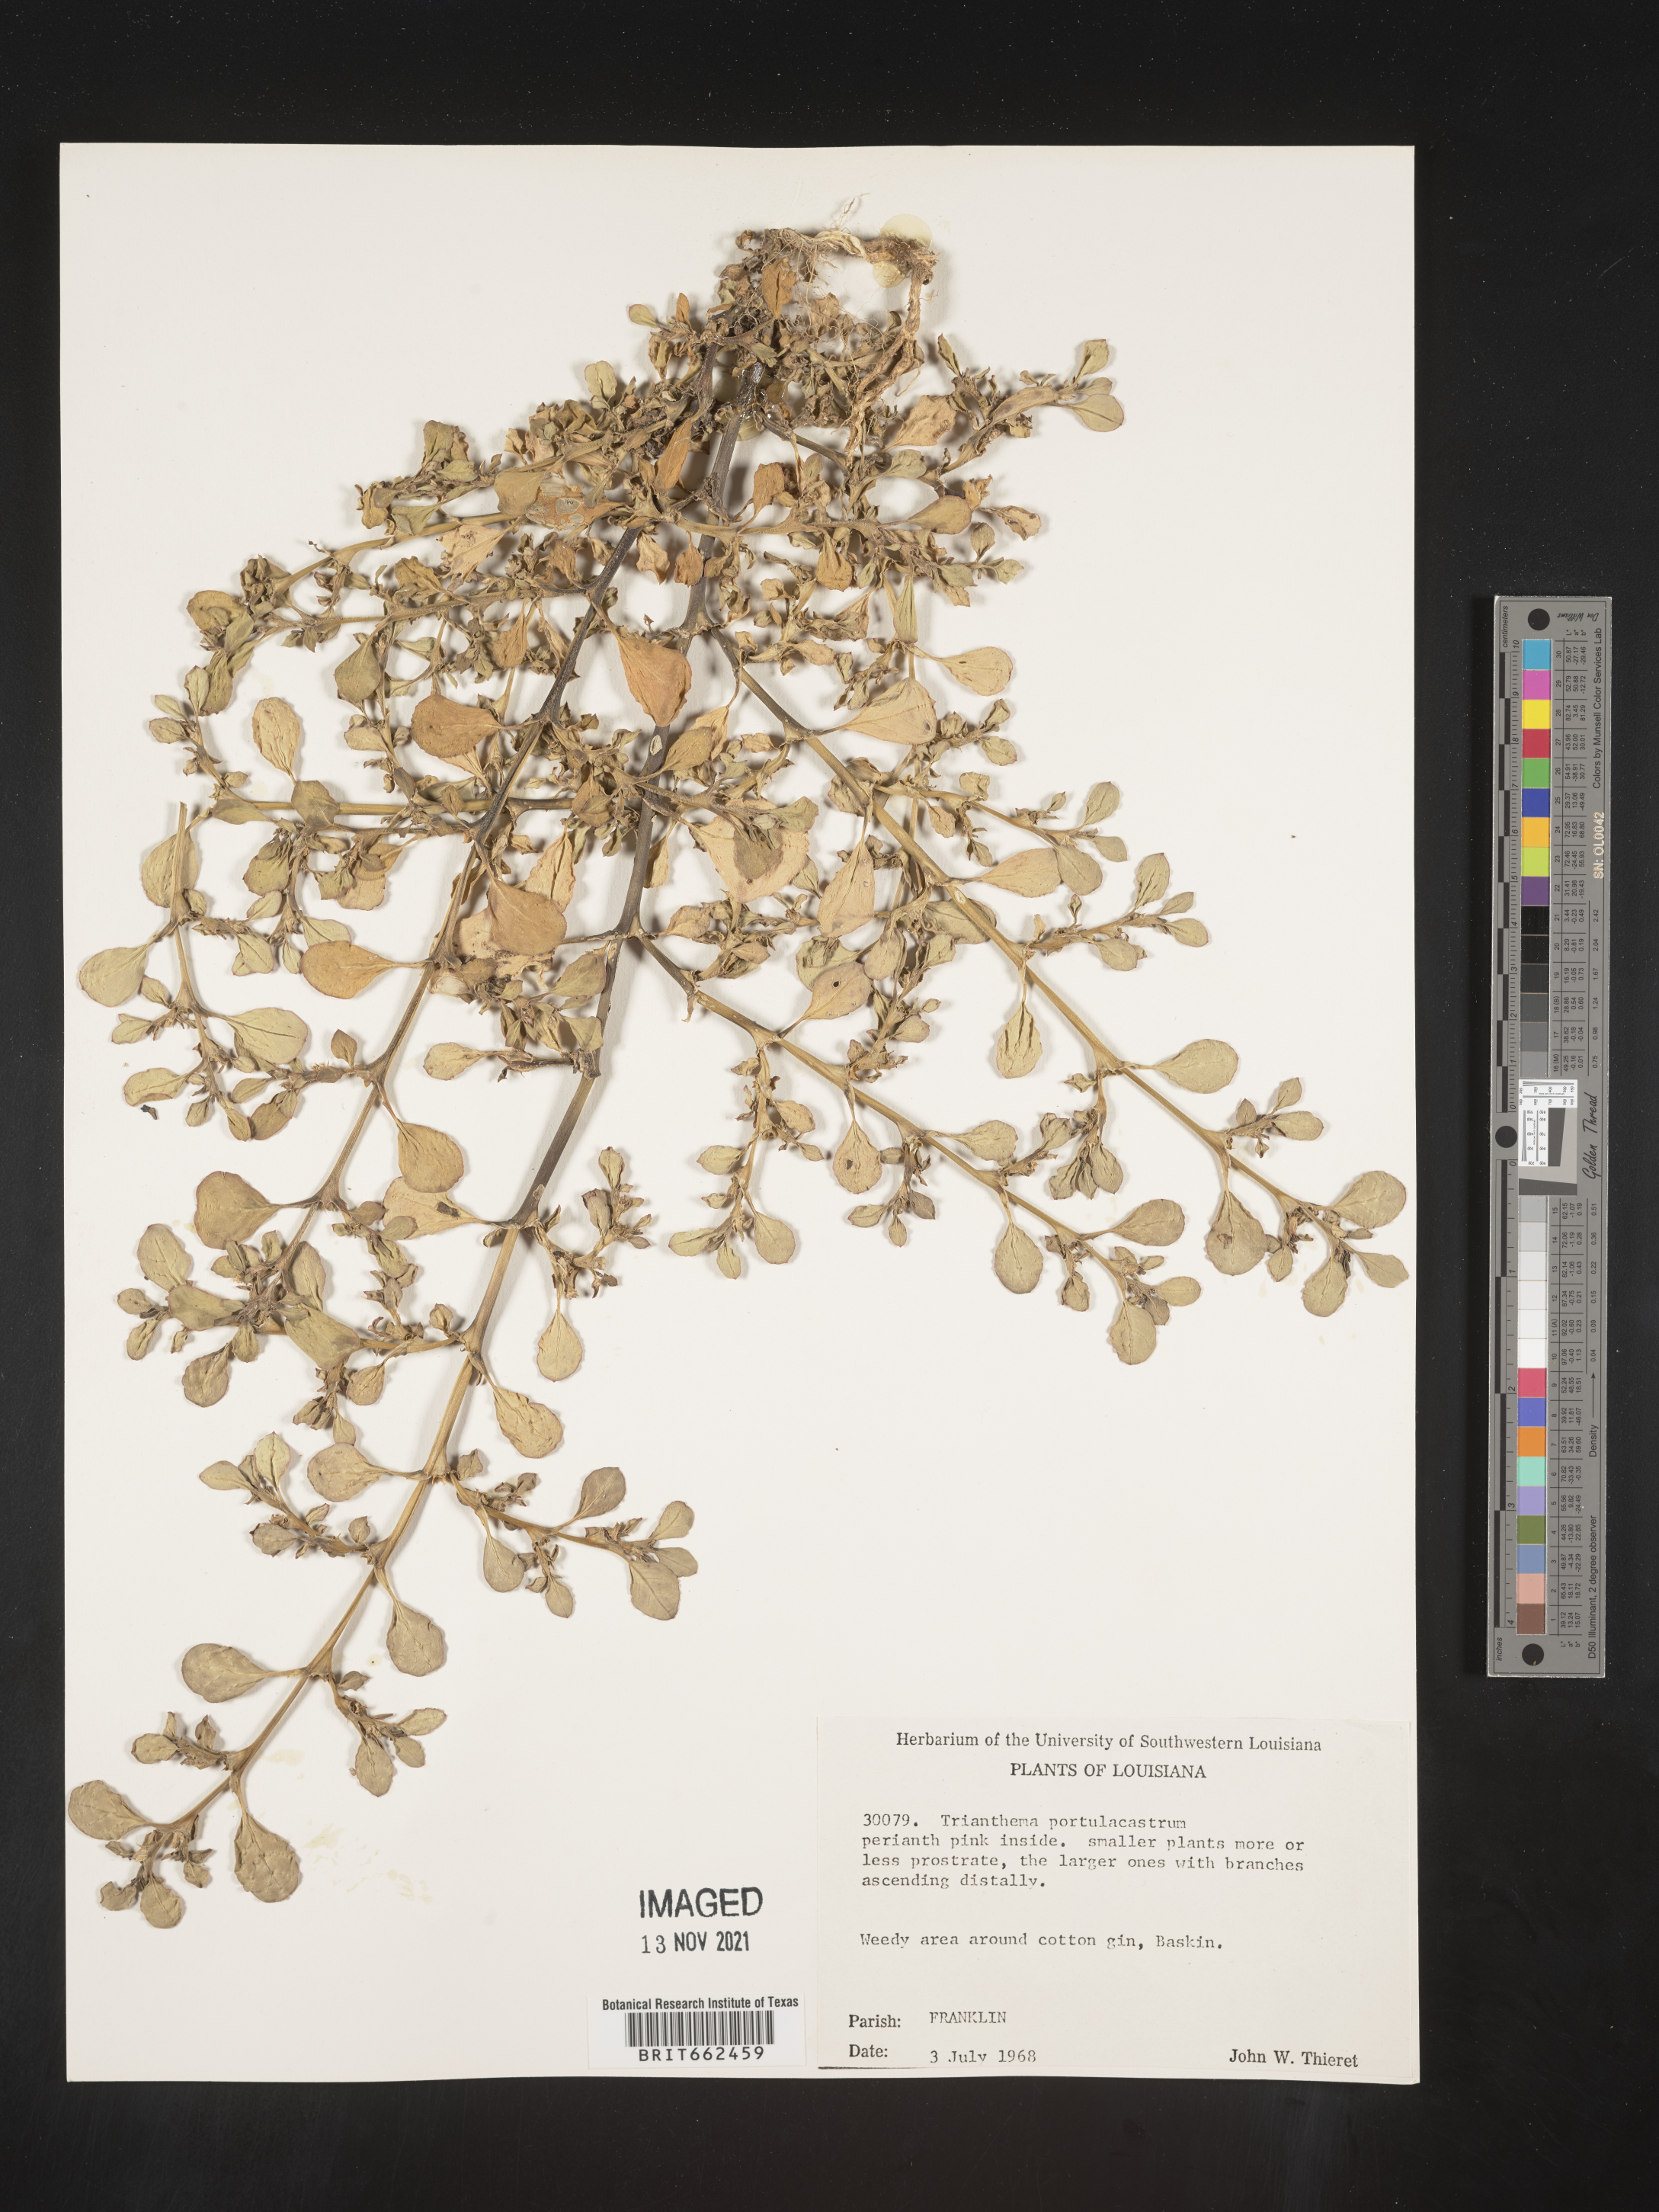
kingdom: Plantae
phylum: Tracheophyta
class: Magnoliopsida
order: Caryophyllales
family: Aizoaceae
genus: Trianthema
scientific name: Trianthema
